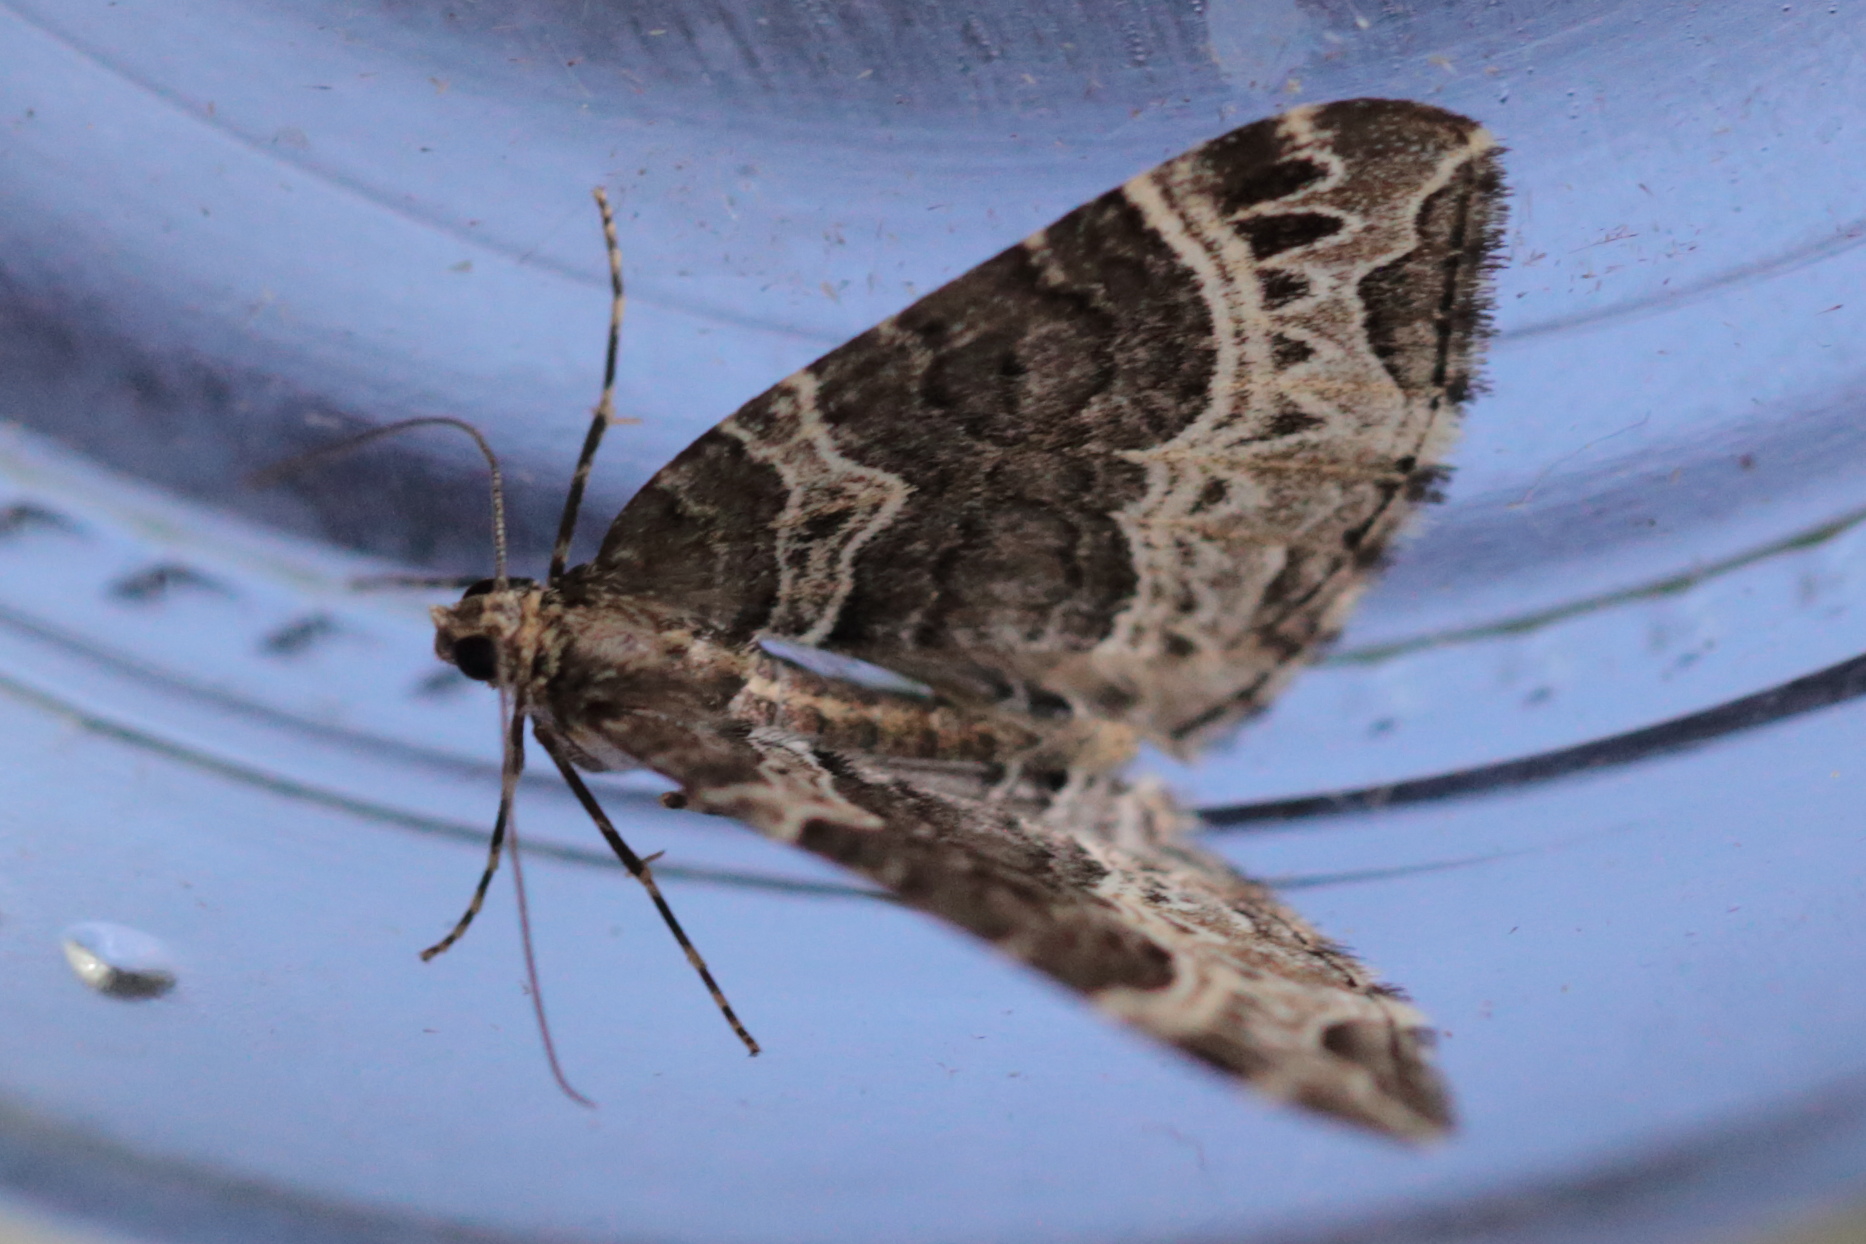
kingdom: Animalia
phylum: Arthropoda
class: Insecta
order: Lepidoptera
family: Geometridae
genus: Ecliptopera
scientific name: Ecliptopera silaceata
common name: Small phoenix
